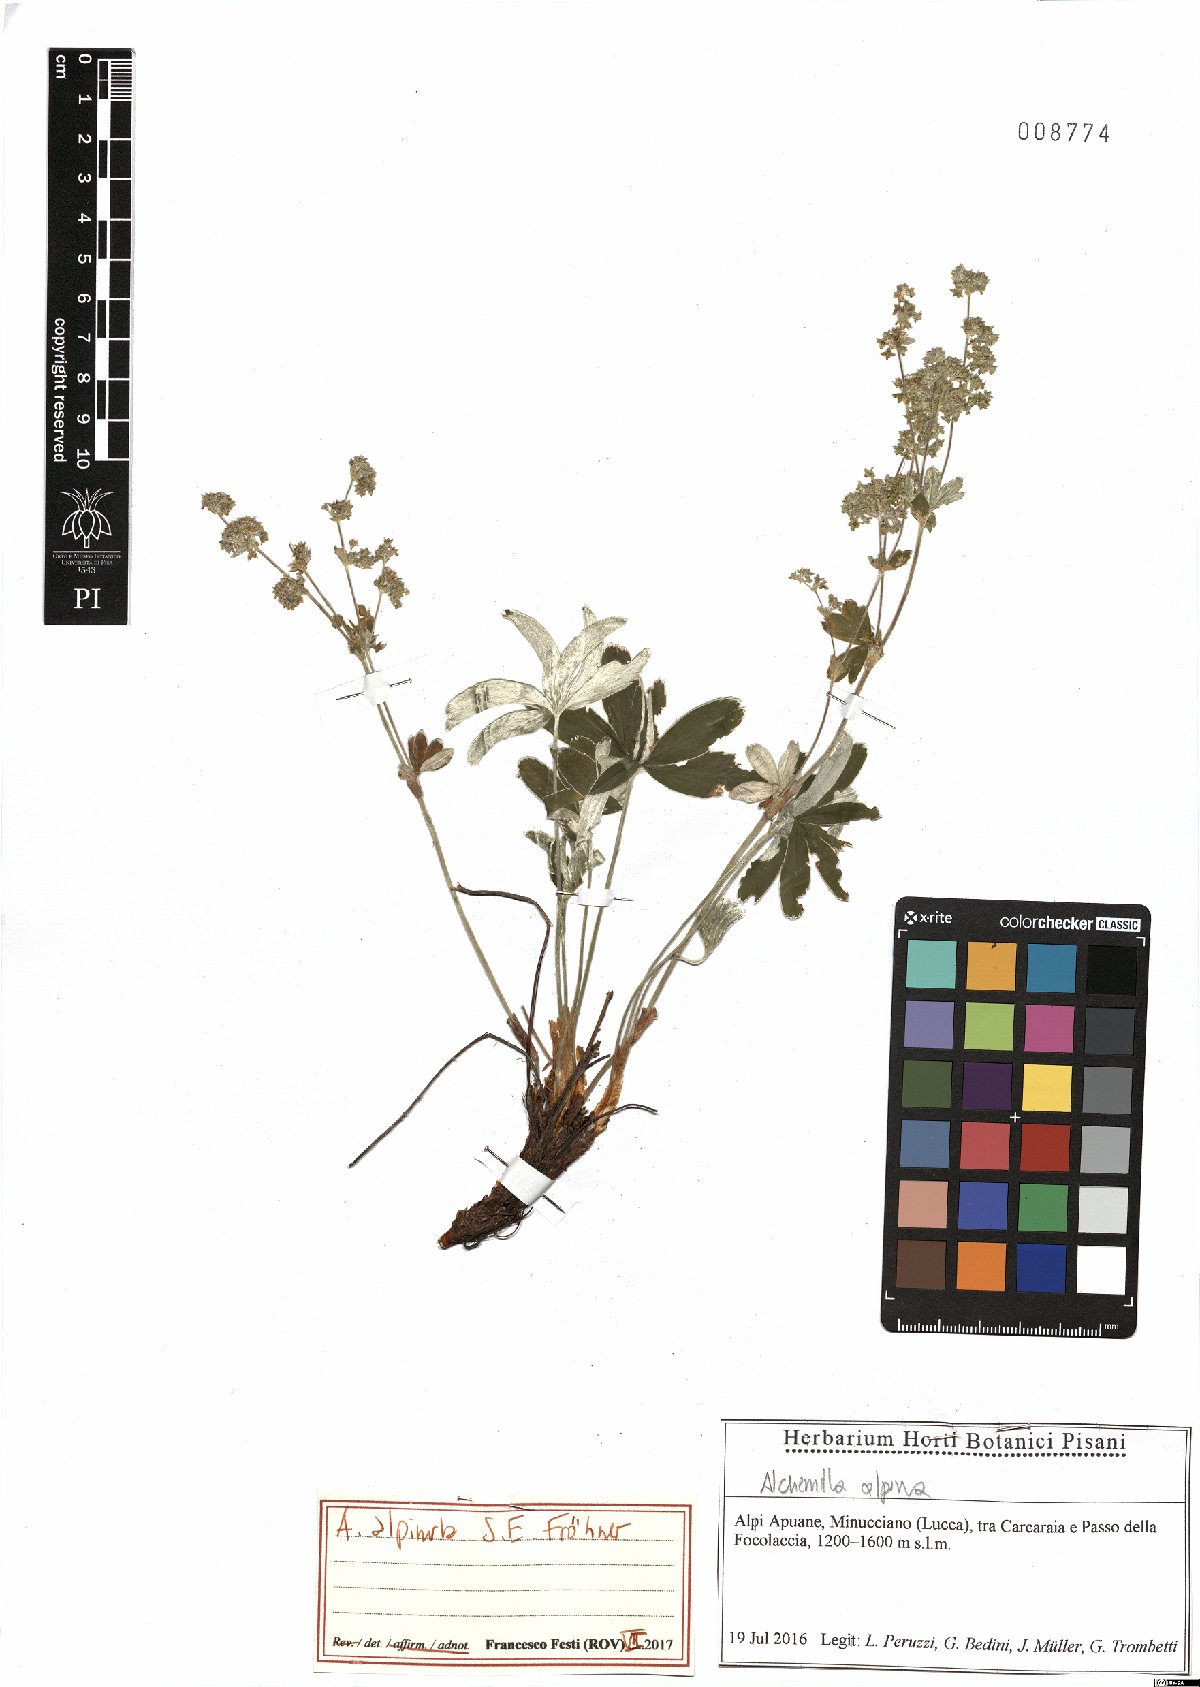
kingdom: Plantae
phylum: Tracheophyta
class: Magnoliopsida
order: Rosales
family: Rosaceae
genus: Alchemilla
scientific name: Alchemilla alpinula
